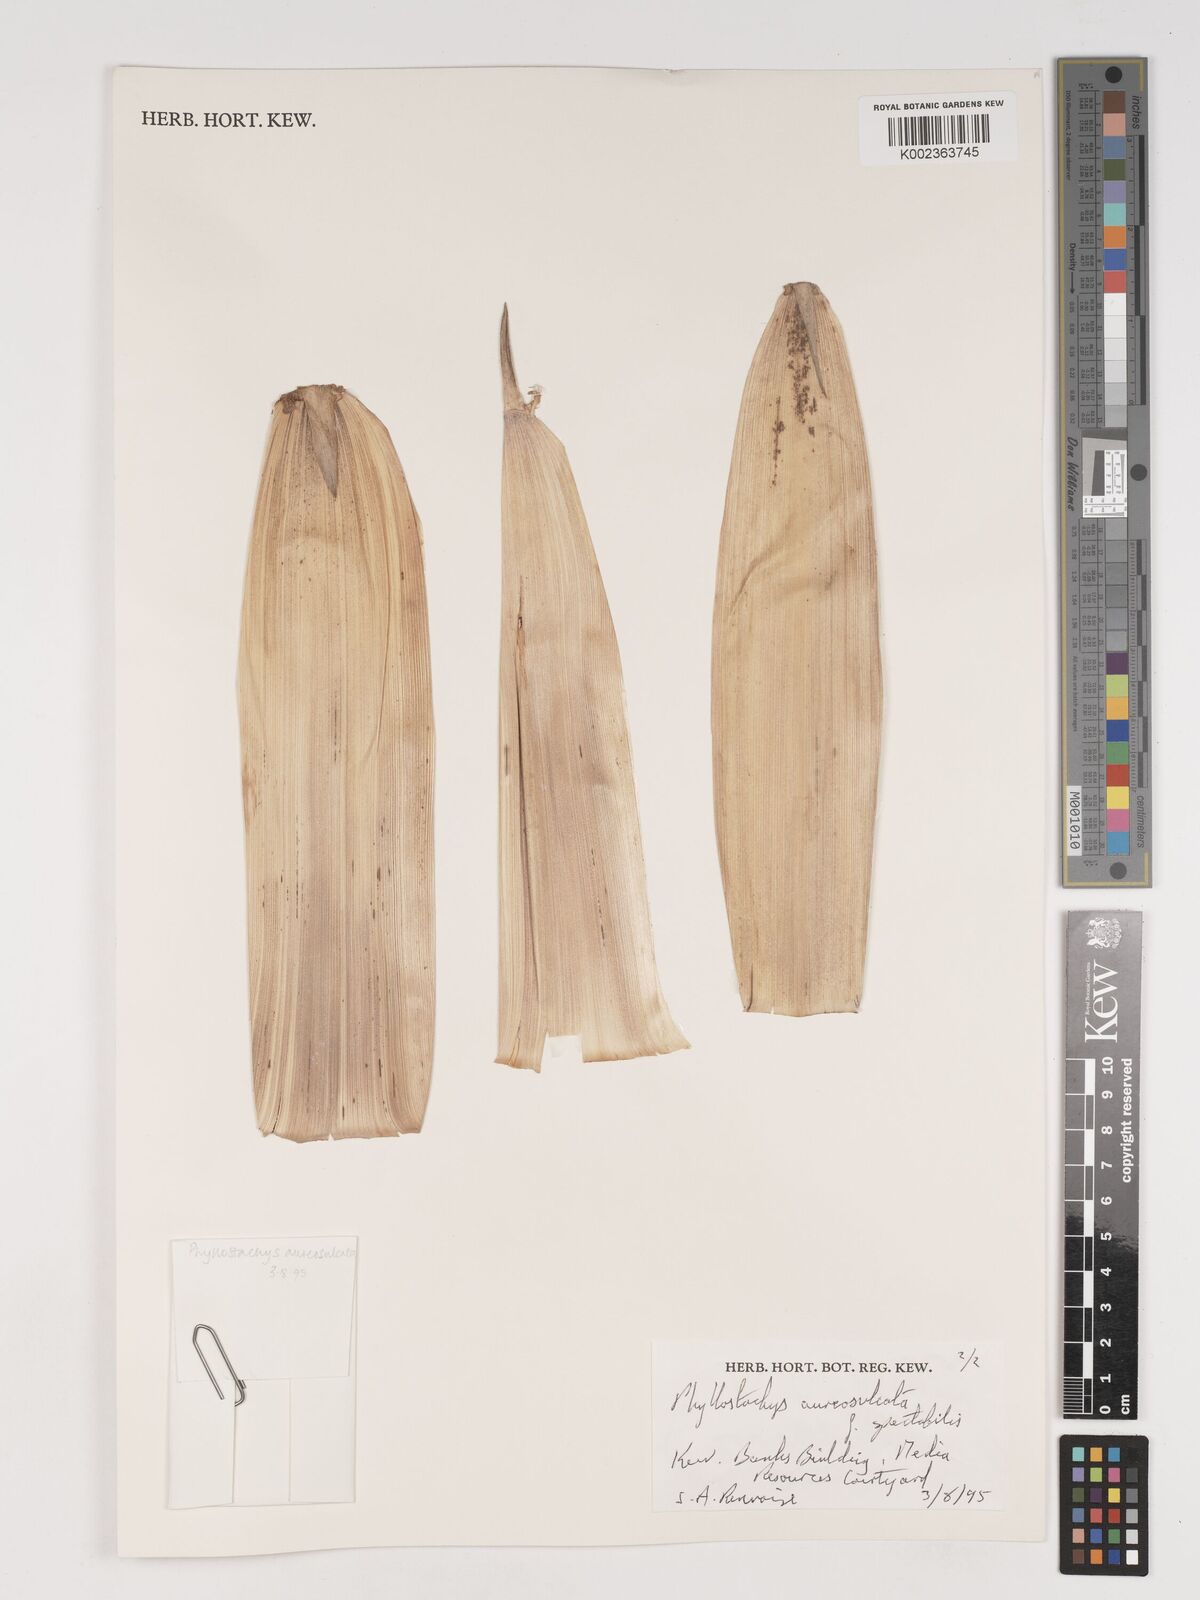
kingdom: Plantae
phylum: Tracheophyta
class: Liliopsida
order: Poales
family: Poaceae
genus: Phyllostachys
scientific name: Phyllostachys aureosulcata
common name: Yellow groove bamboo
